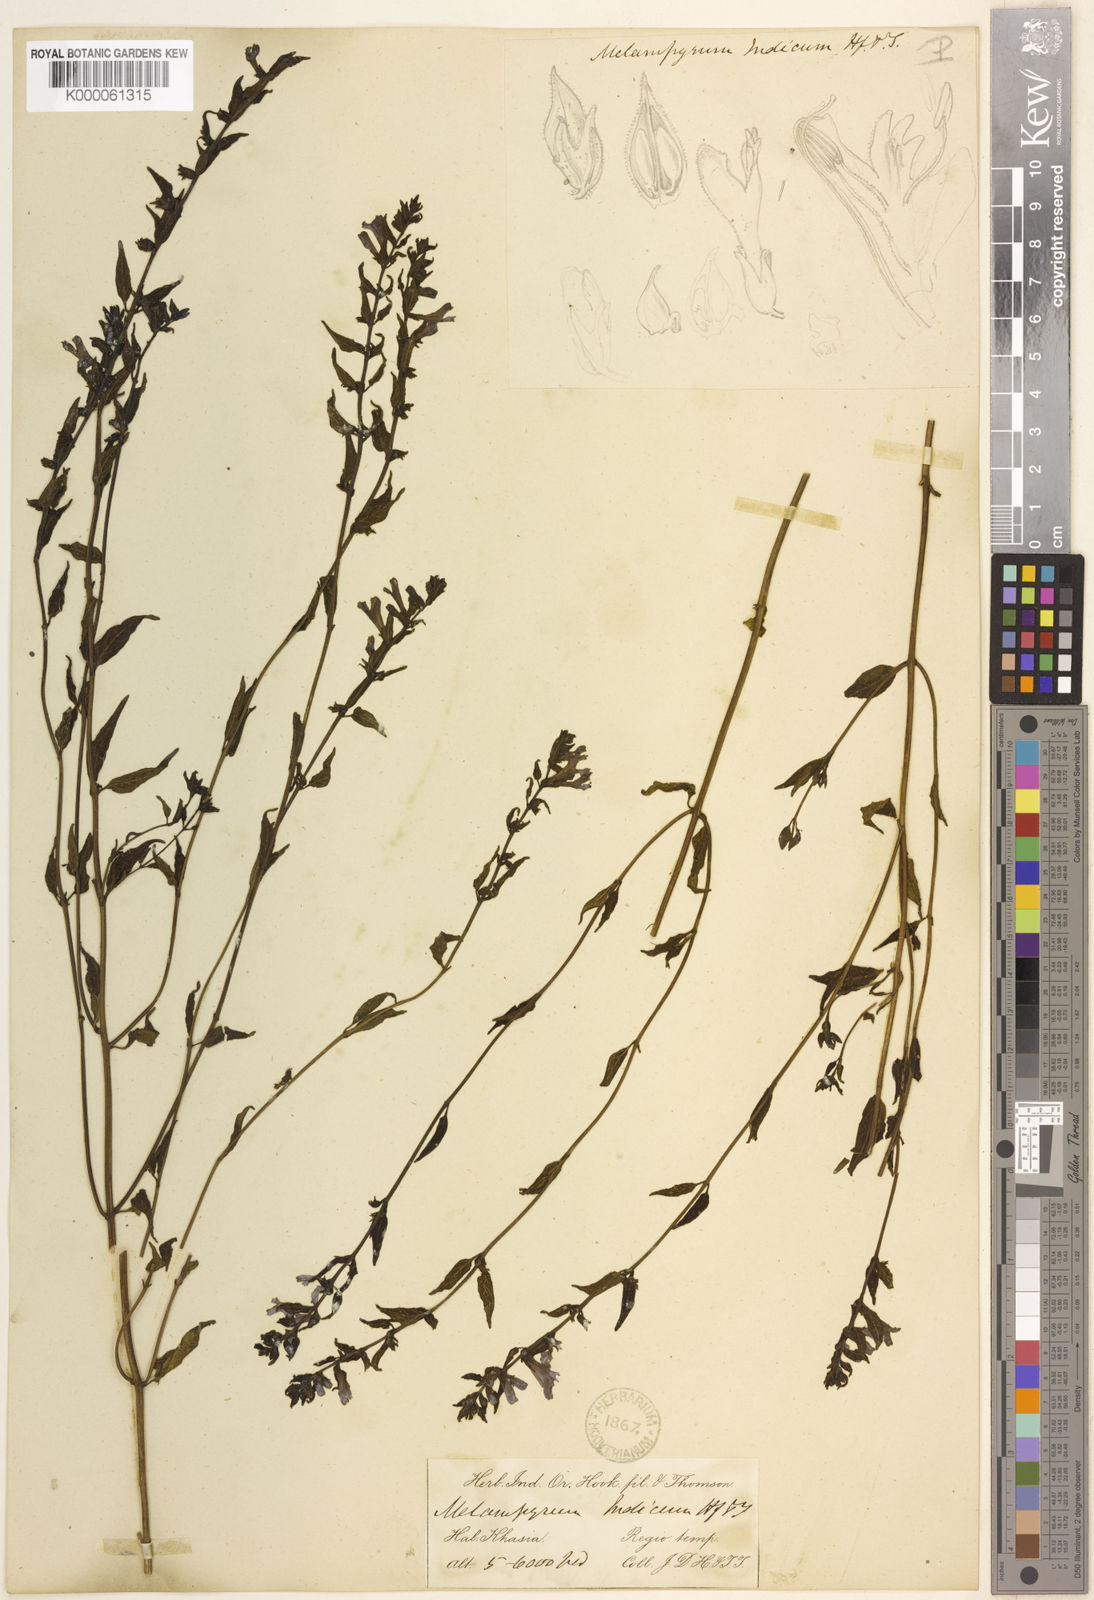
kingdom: Plantae
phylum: Tracheophyta
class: Magnoliopsida
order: Lamiales
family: Orobanchaceae
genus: Melampyrum
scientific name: Melampyrum indicum
